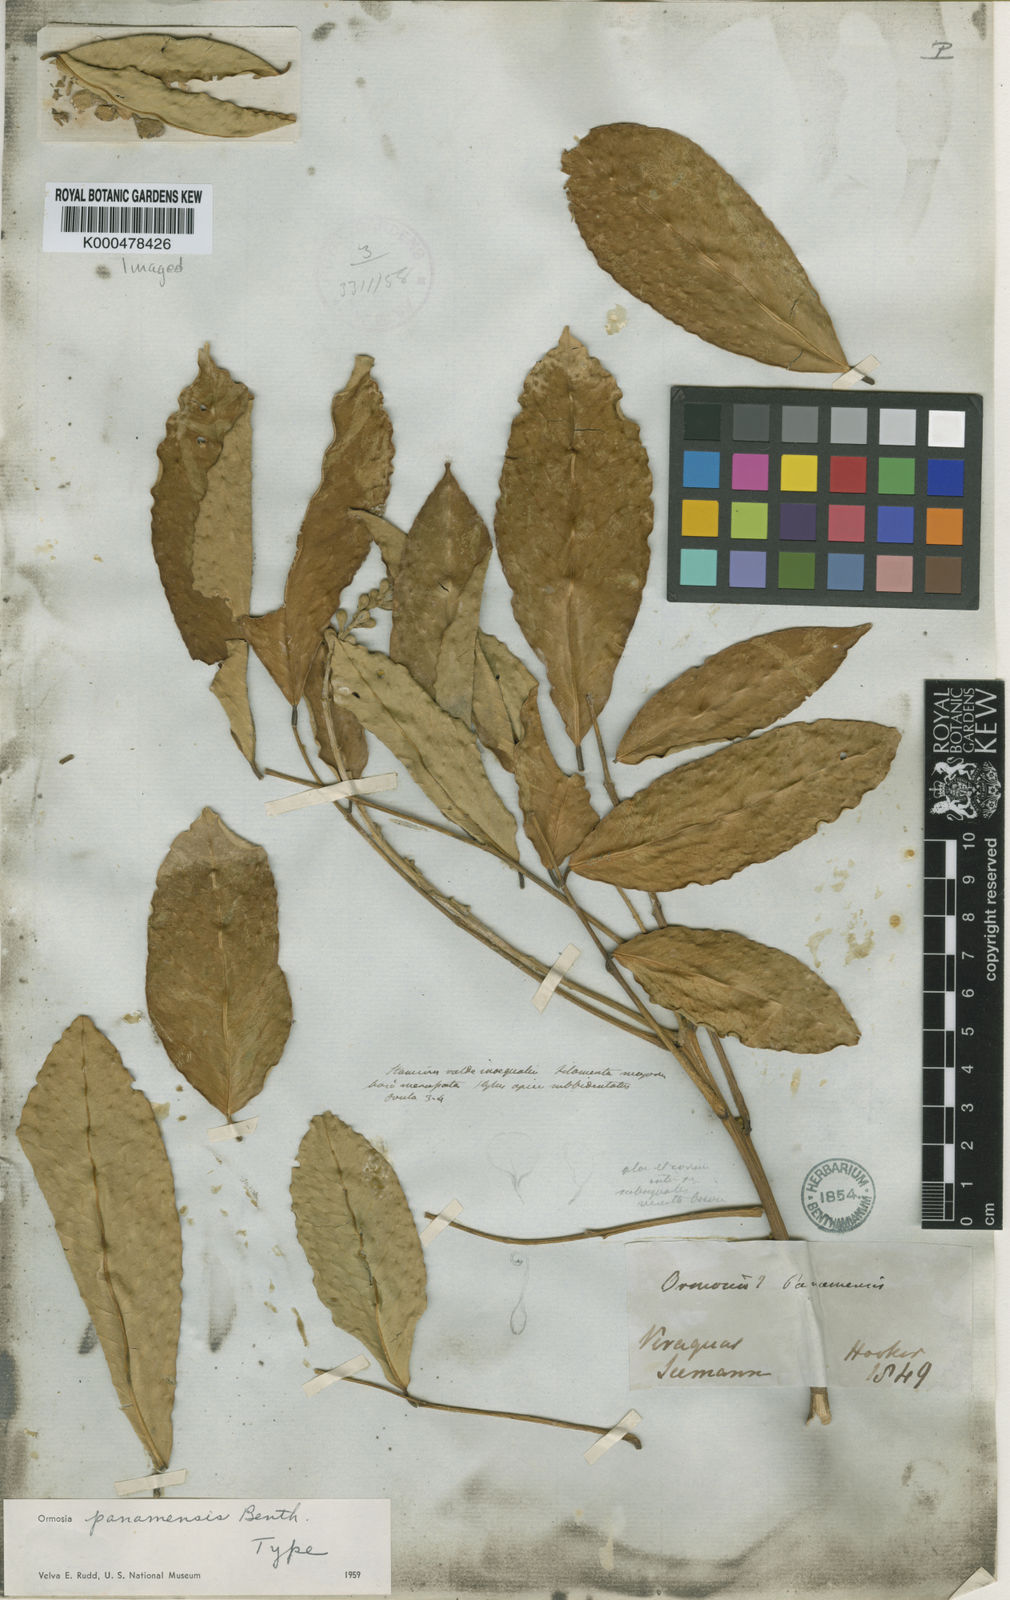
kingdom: Plantae
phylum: Tracheophyta
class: Magnoliopsida
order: Fabales
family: Fabaceae
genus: Ormosia
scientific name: Ormosia
